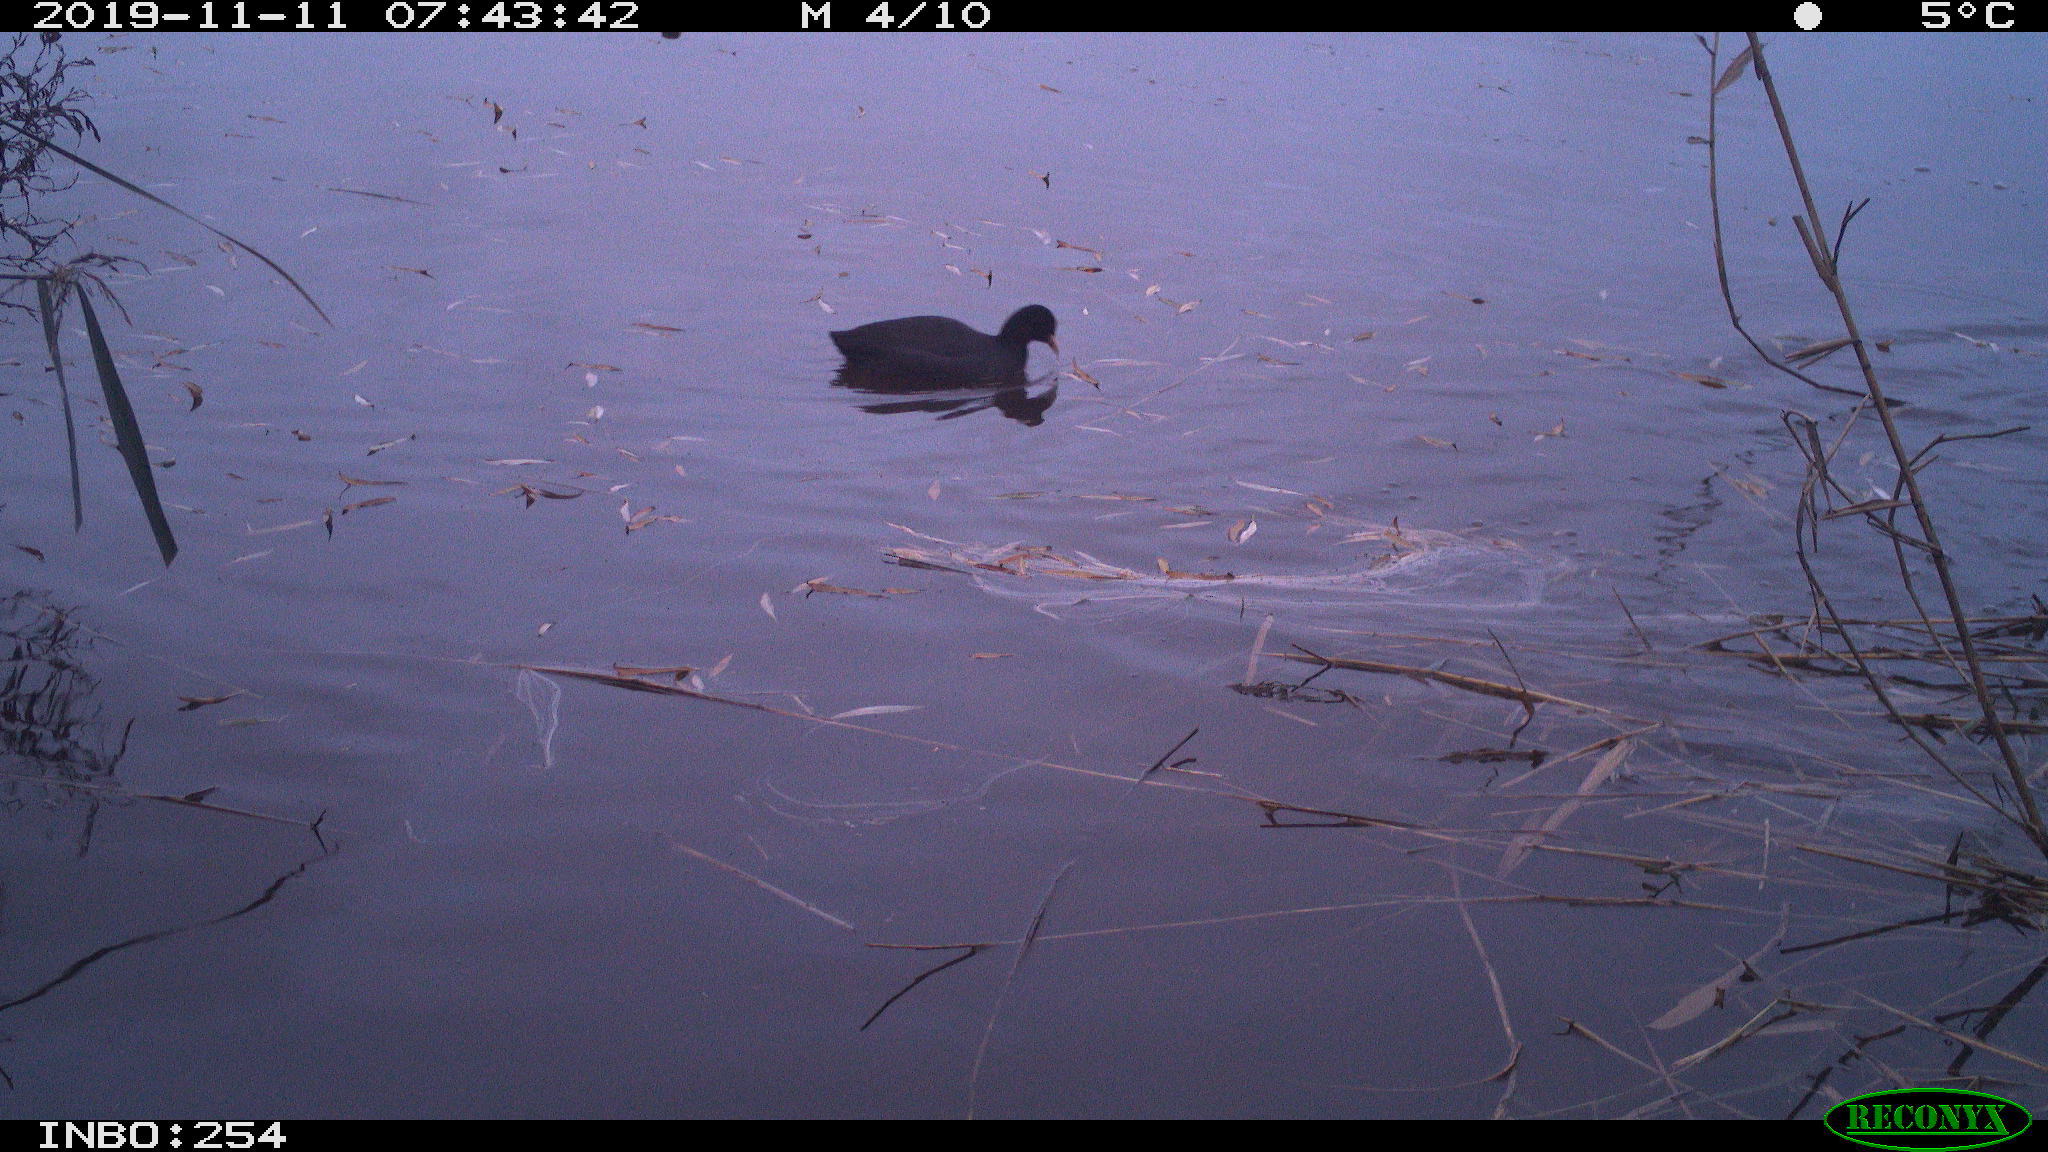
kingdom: Animalia
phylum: Chordata
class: Aves
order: Gruiformes
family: Rallidae
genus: Fulica
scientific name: Fulica atra
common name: Eurasian coot
